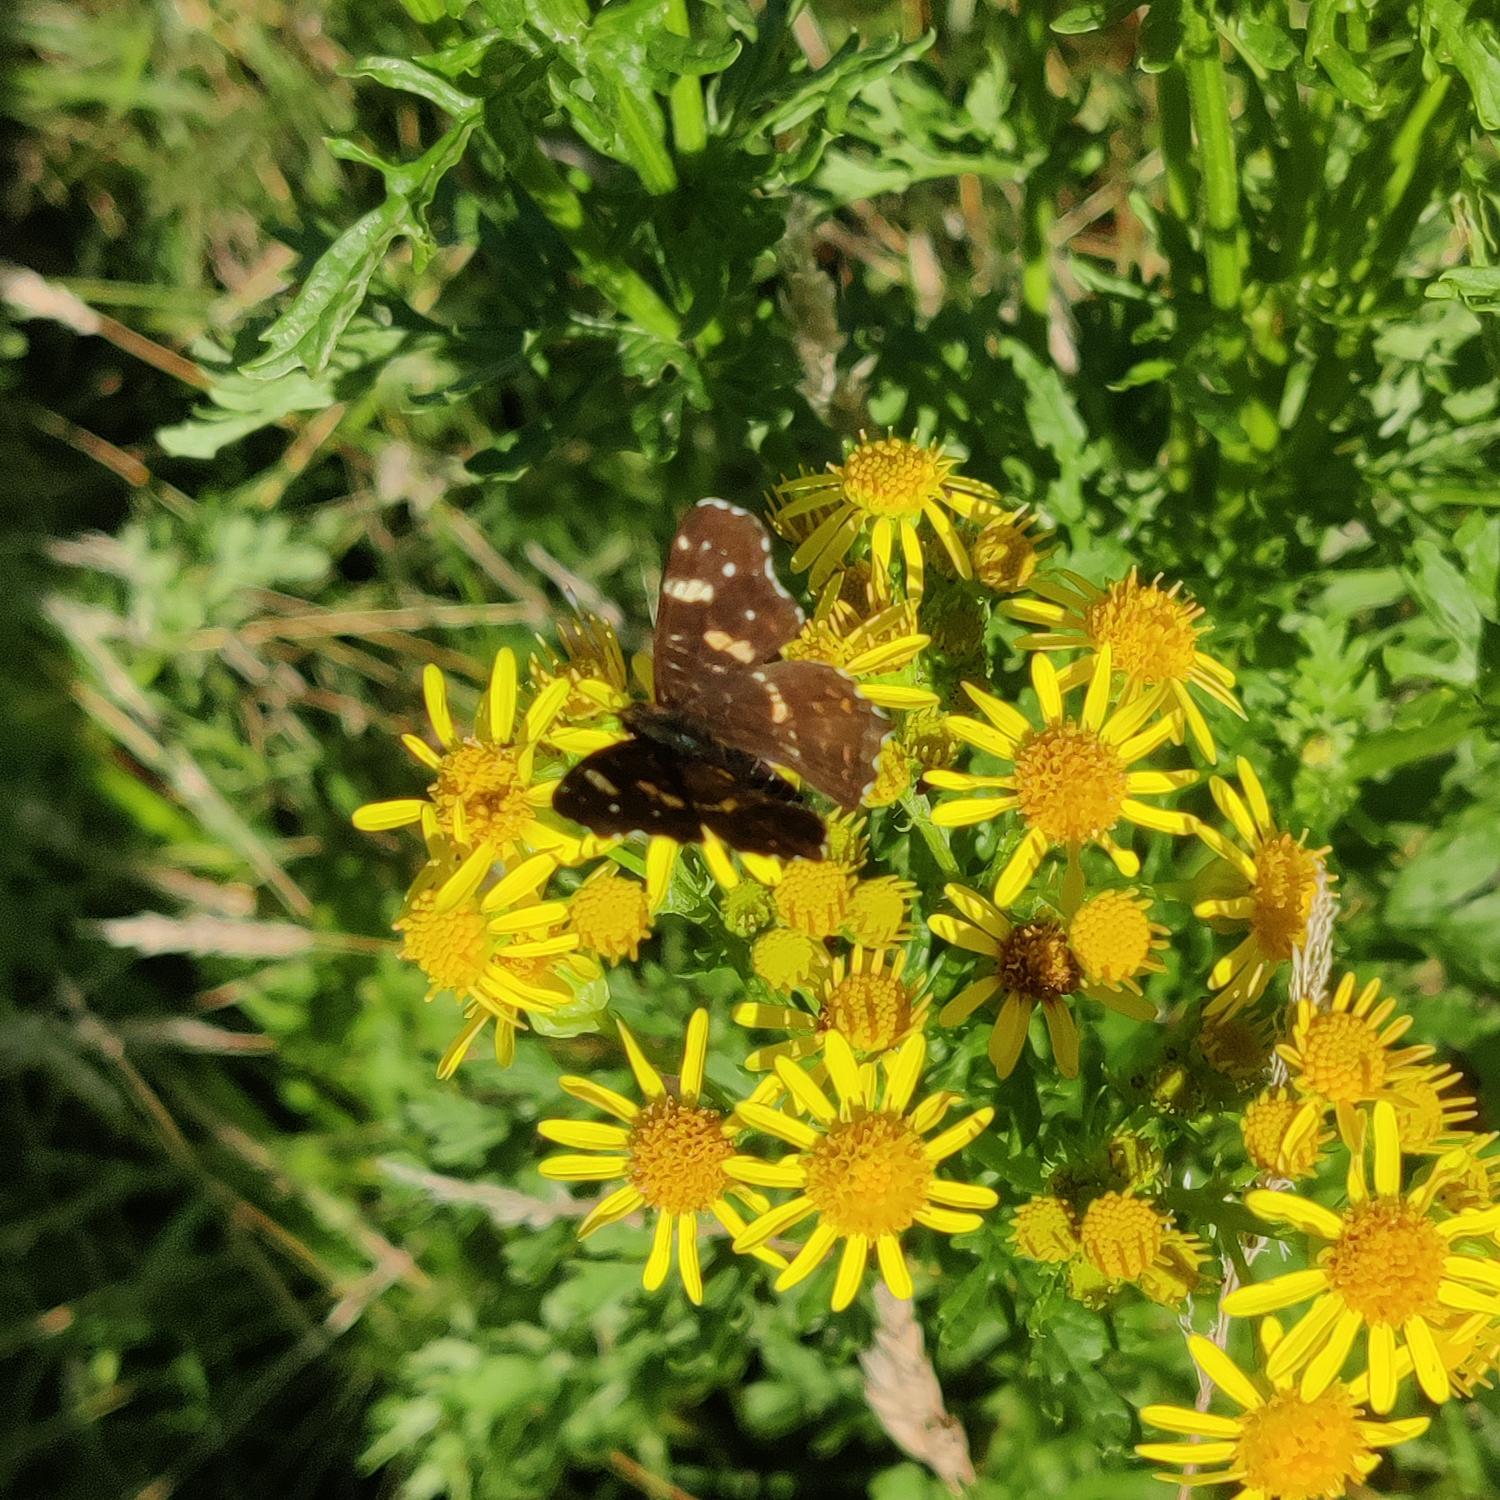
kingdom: Animalia
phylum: Arthropoda
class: Insecta
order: Lepidoptera
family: Nymphalidae
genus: Araschnia
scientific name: Araschnia levana
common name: Nældesommerfugl
